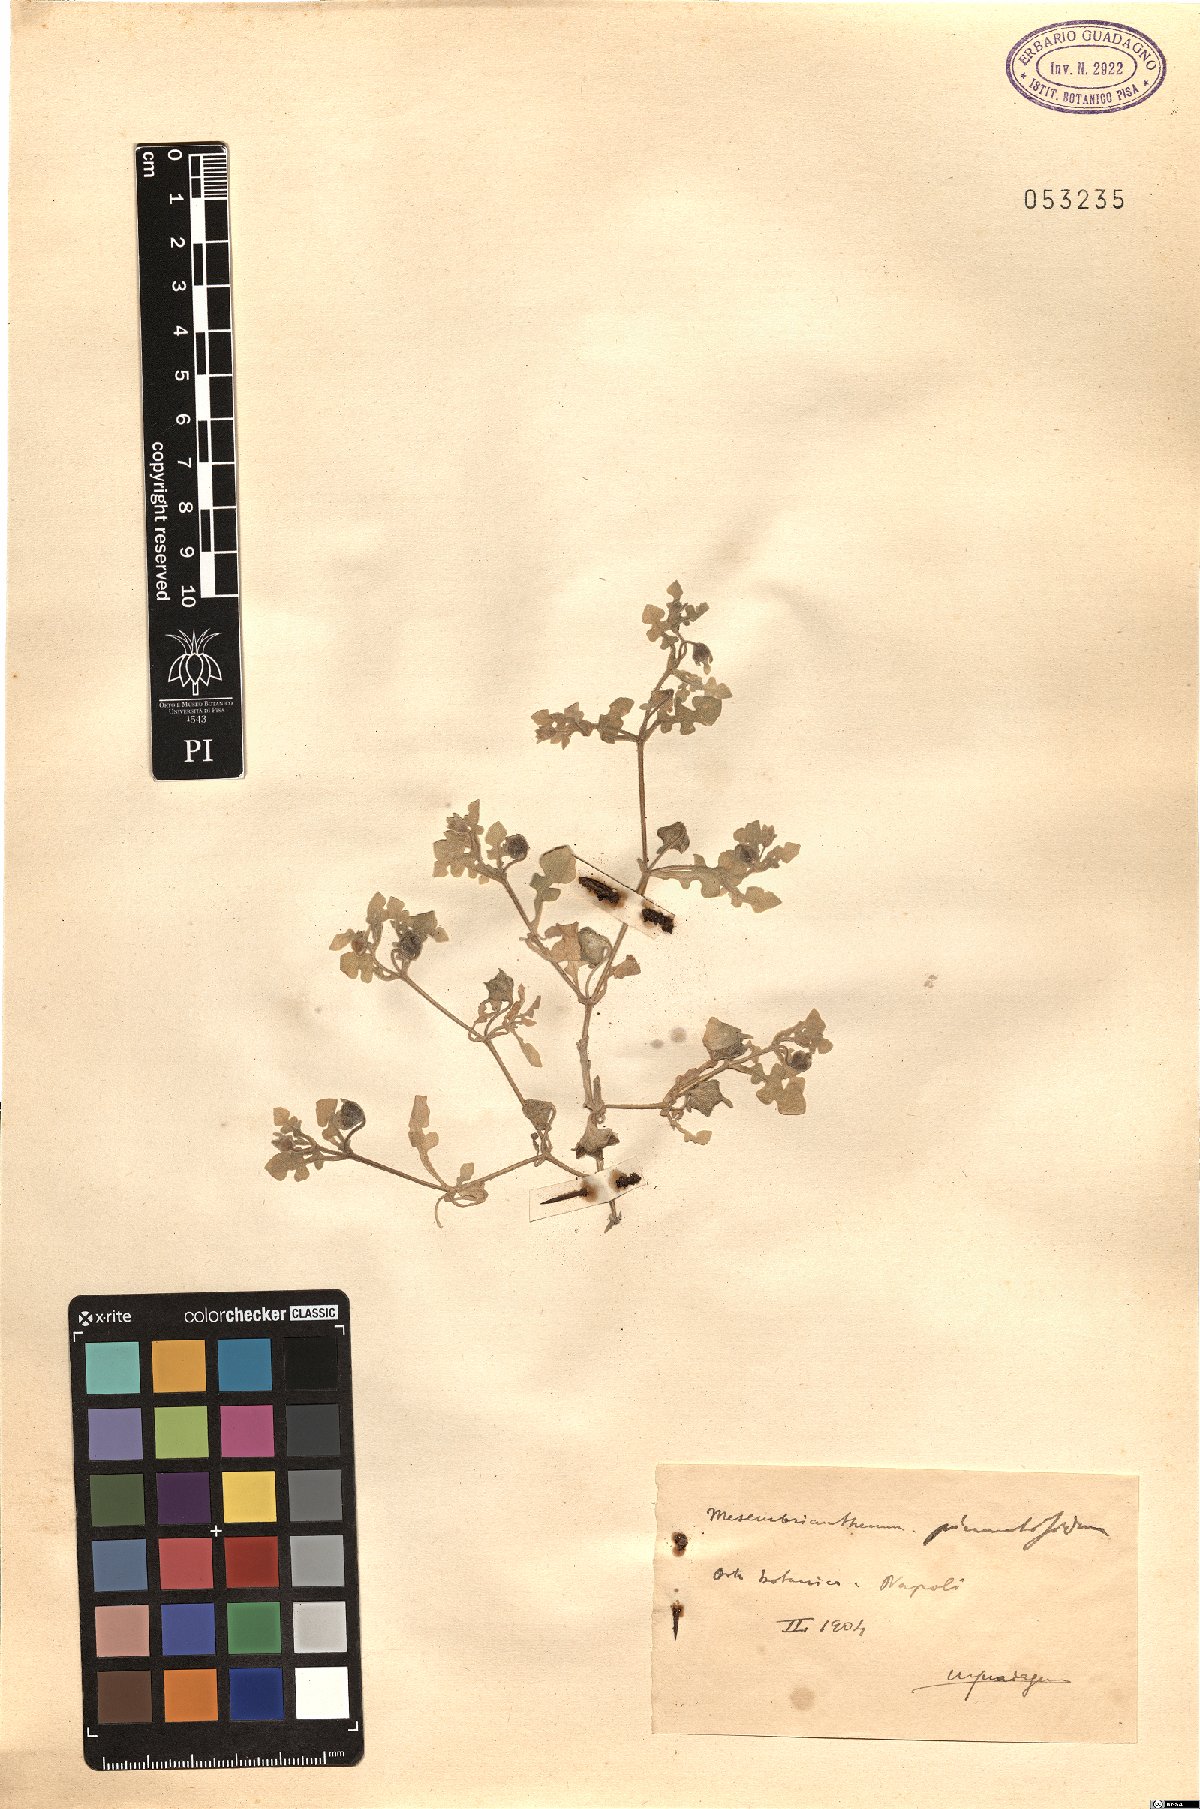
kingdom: Plantae
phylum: Tracheophyta
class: Magnoliopsida
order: Caryophyllales
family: Aizoaceae
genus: Cleretum
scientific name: Cleretum pinnatifidum
